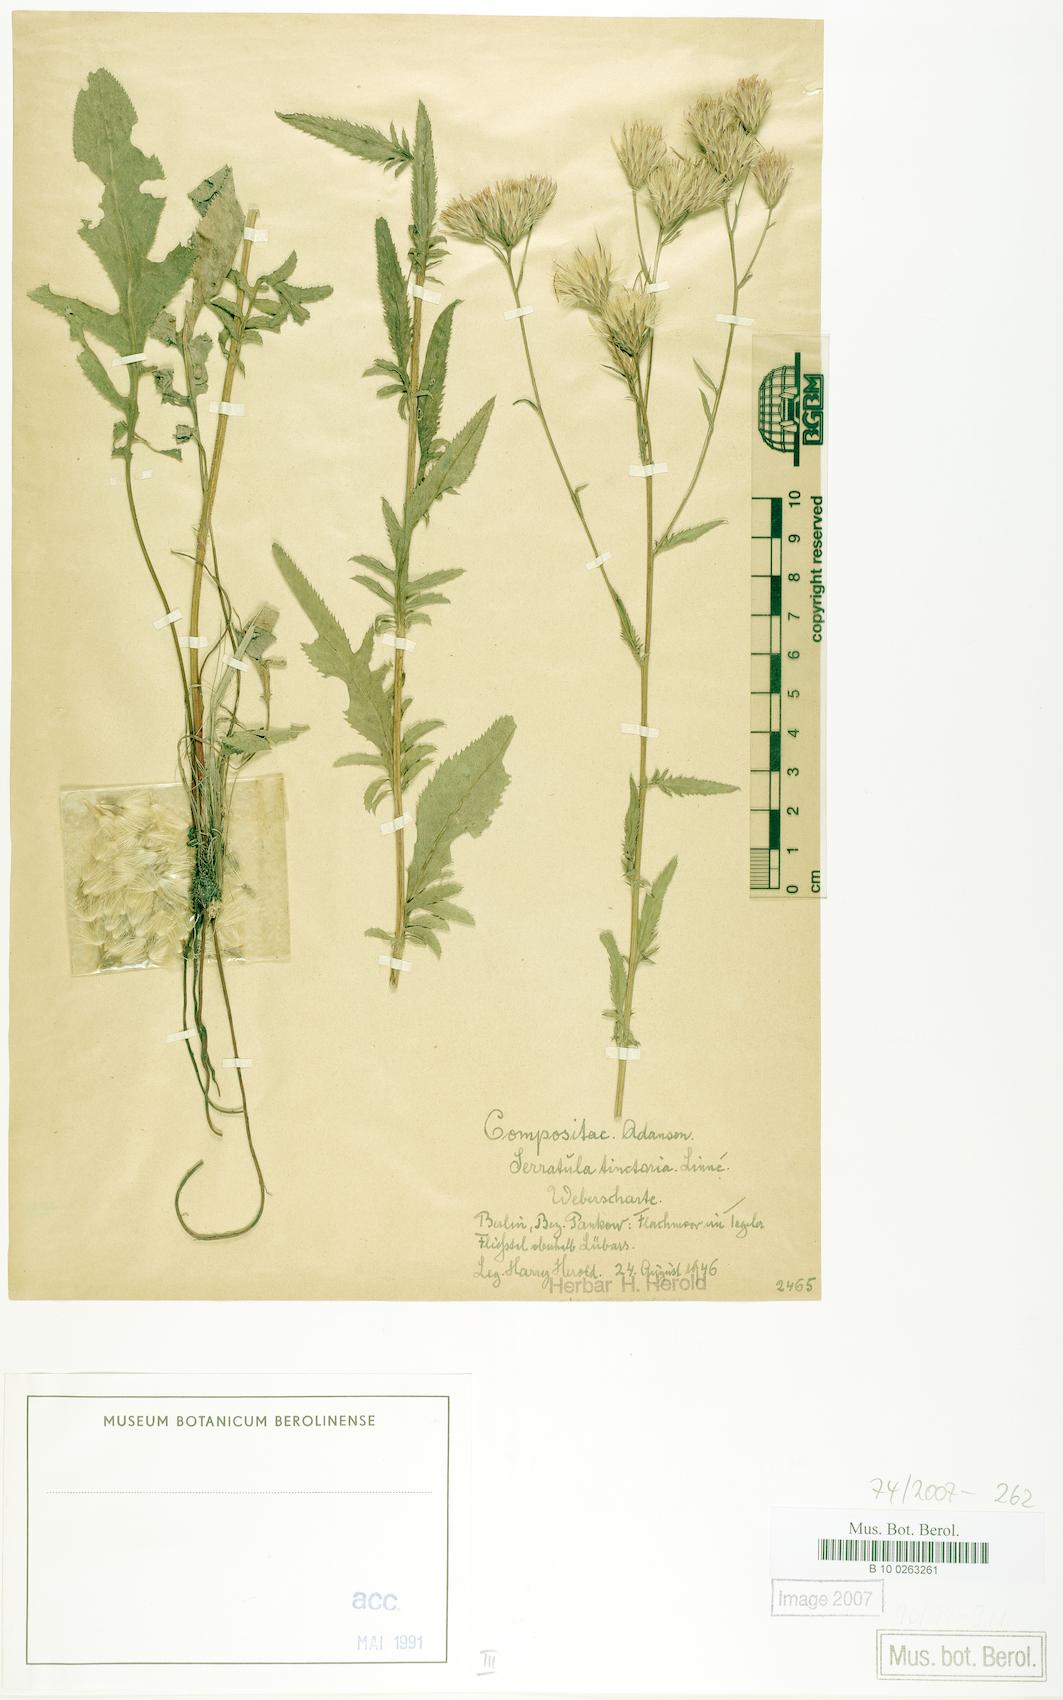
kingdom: Plantae
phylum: Tracheophyta
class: Magnoliopsida
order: Asterales
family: Asteraceae
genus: Serratula
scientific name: Serratula tinctoria
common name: Saw-wort
